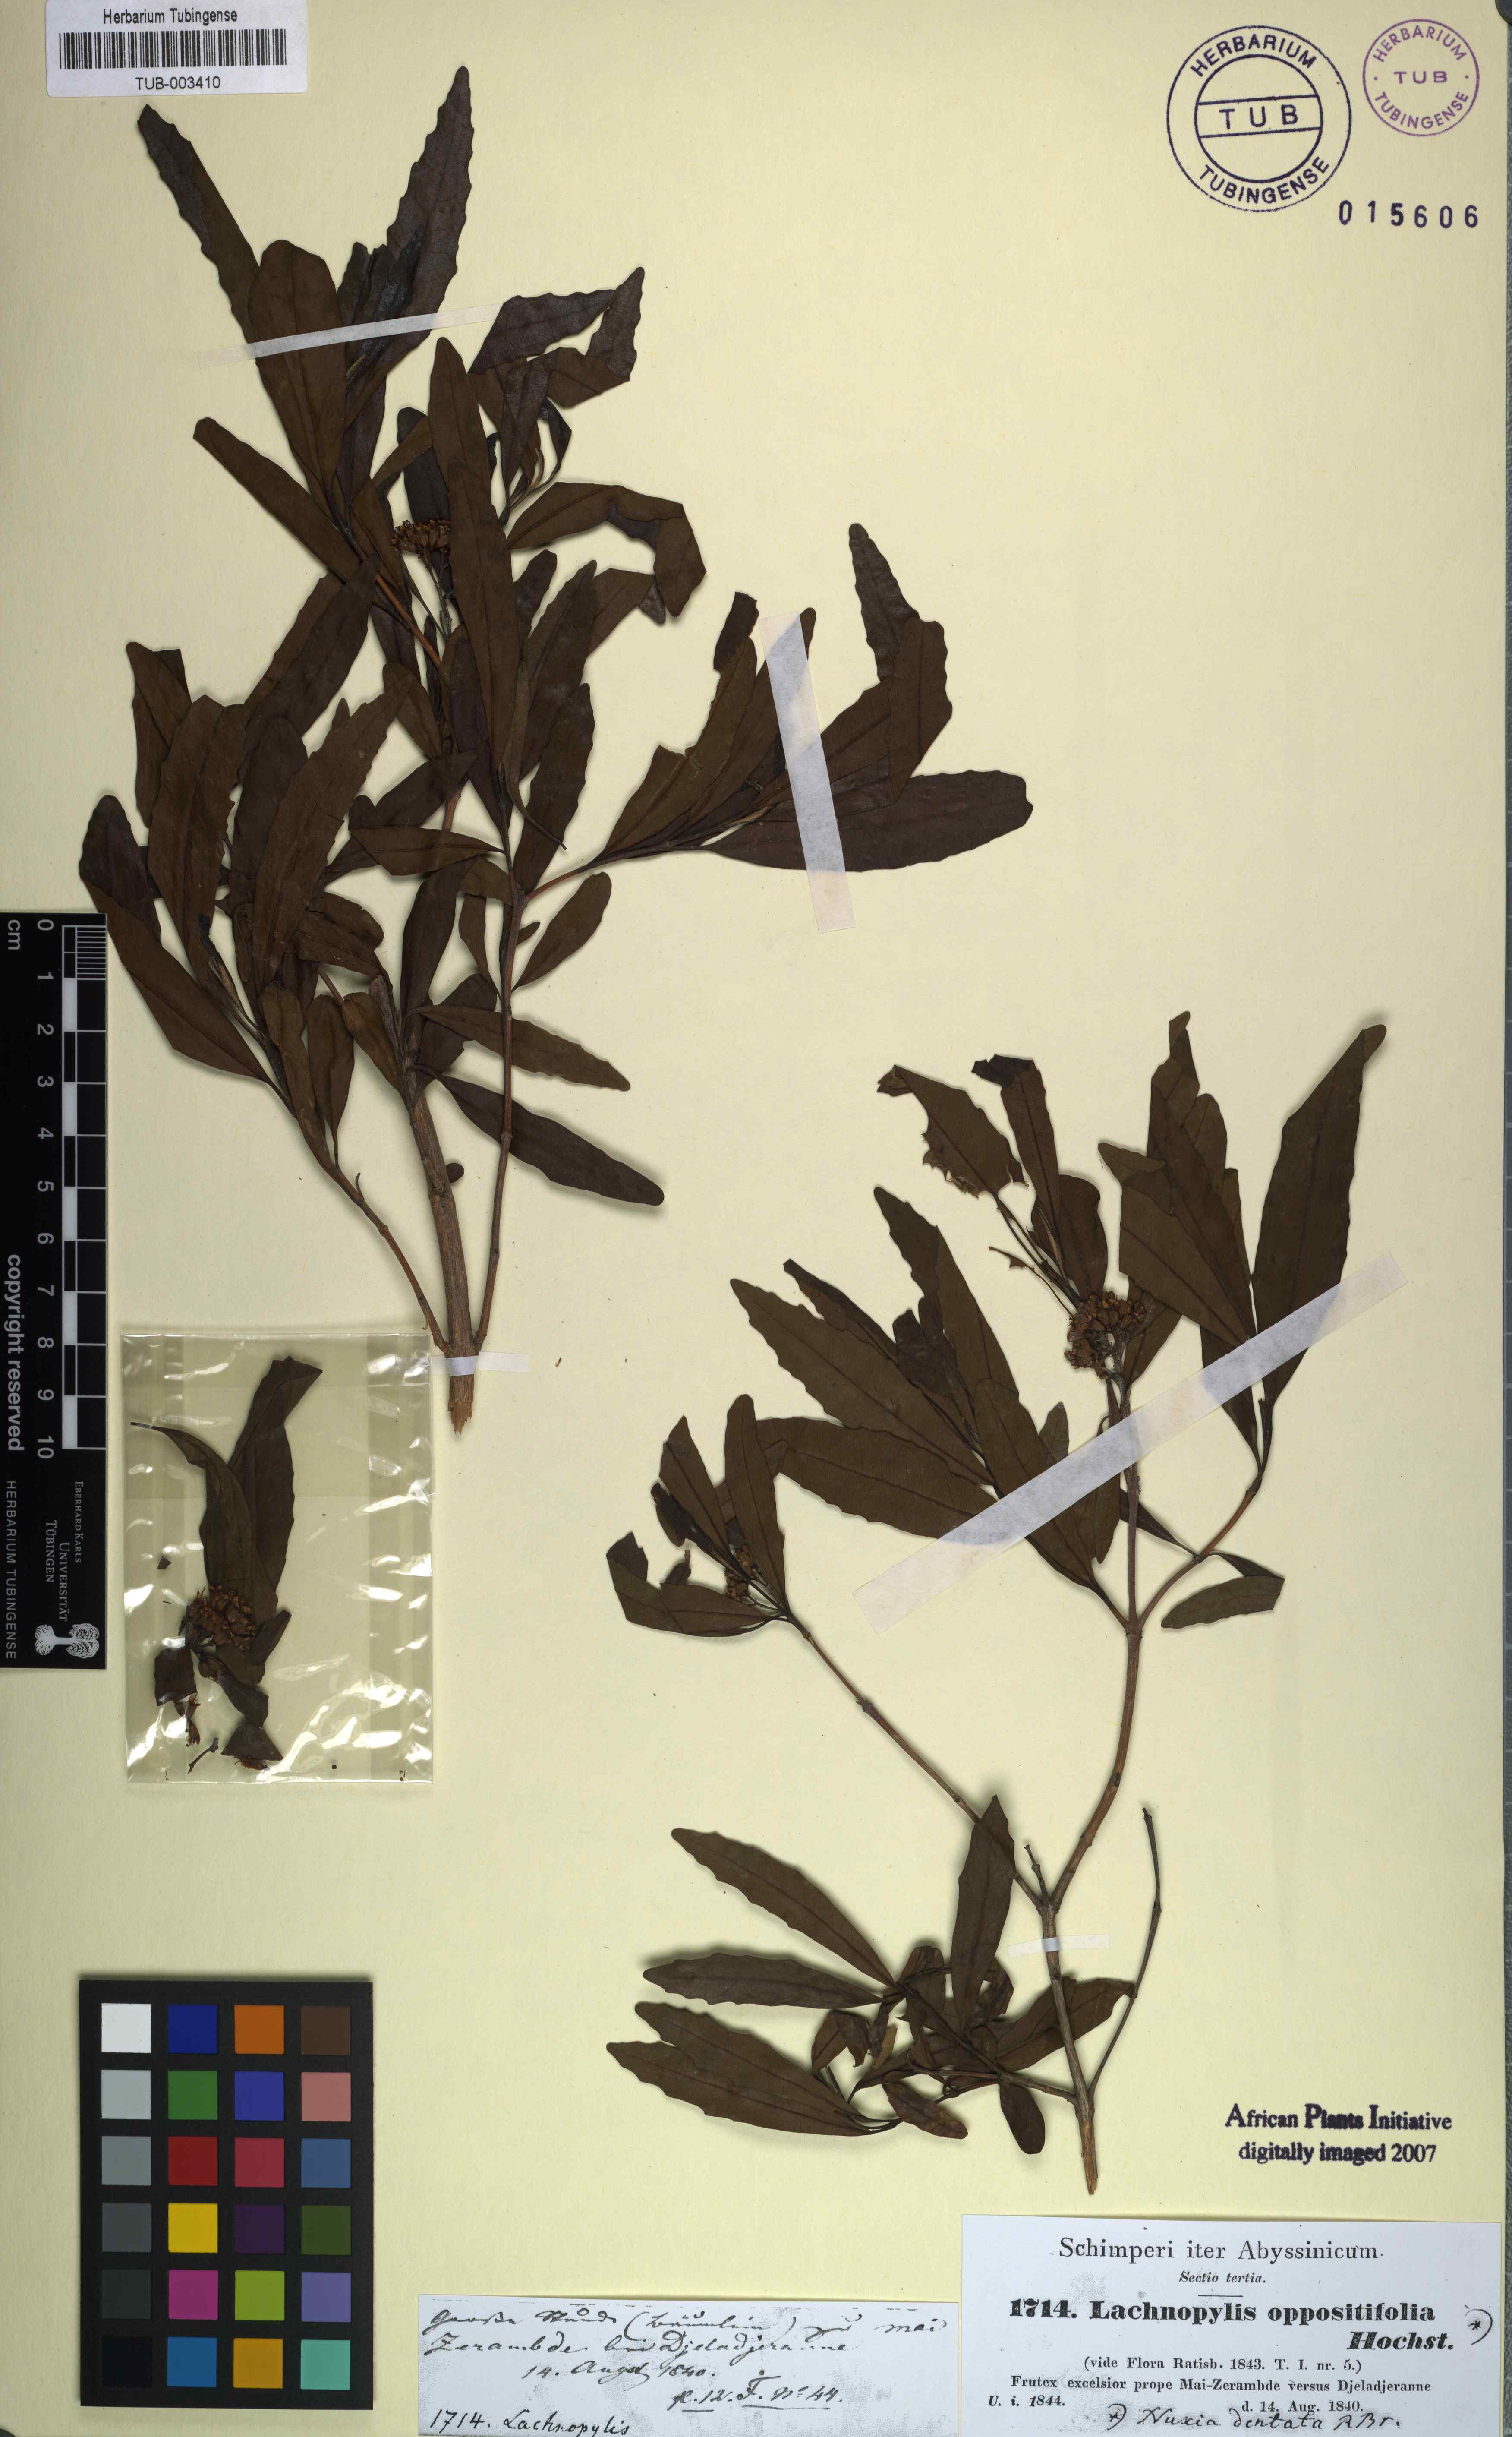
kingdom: Plantae
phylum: Tracheophyta
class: Magnoliopsida
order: Lamiales
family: Stilbaceae
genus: Nuxia
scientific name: Nuxia oppositifolia
